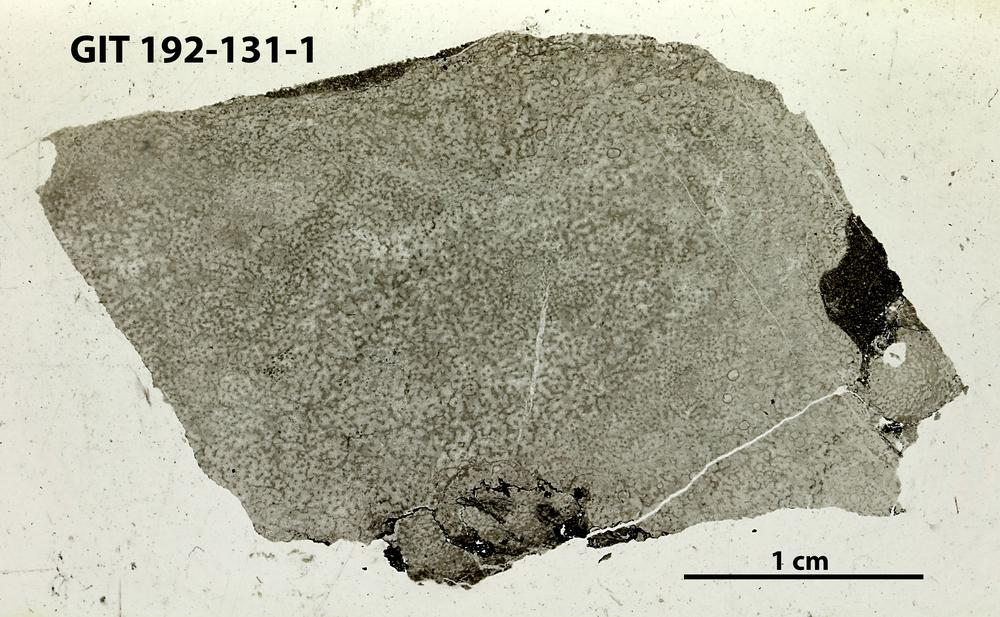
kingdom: Animalia
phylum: Porifera
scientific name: Porifera
